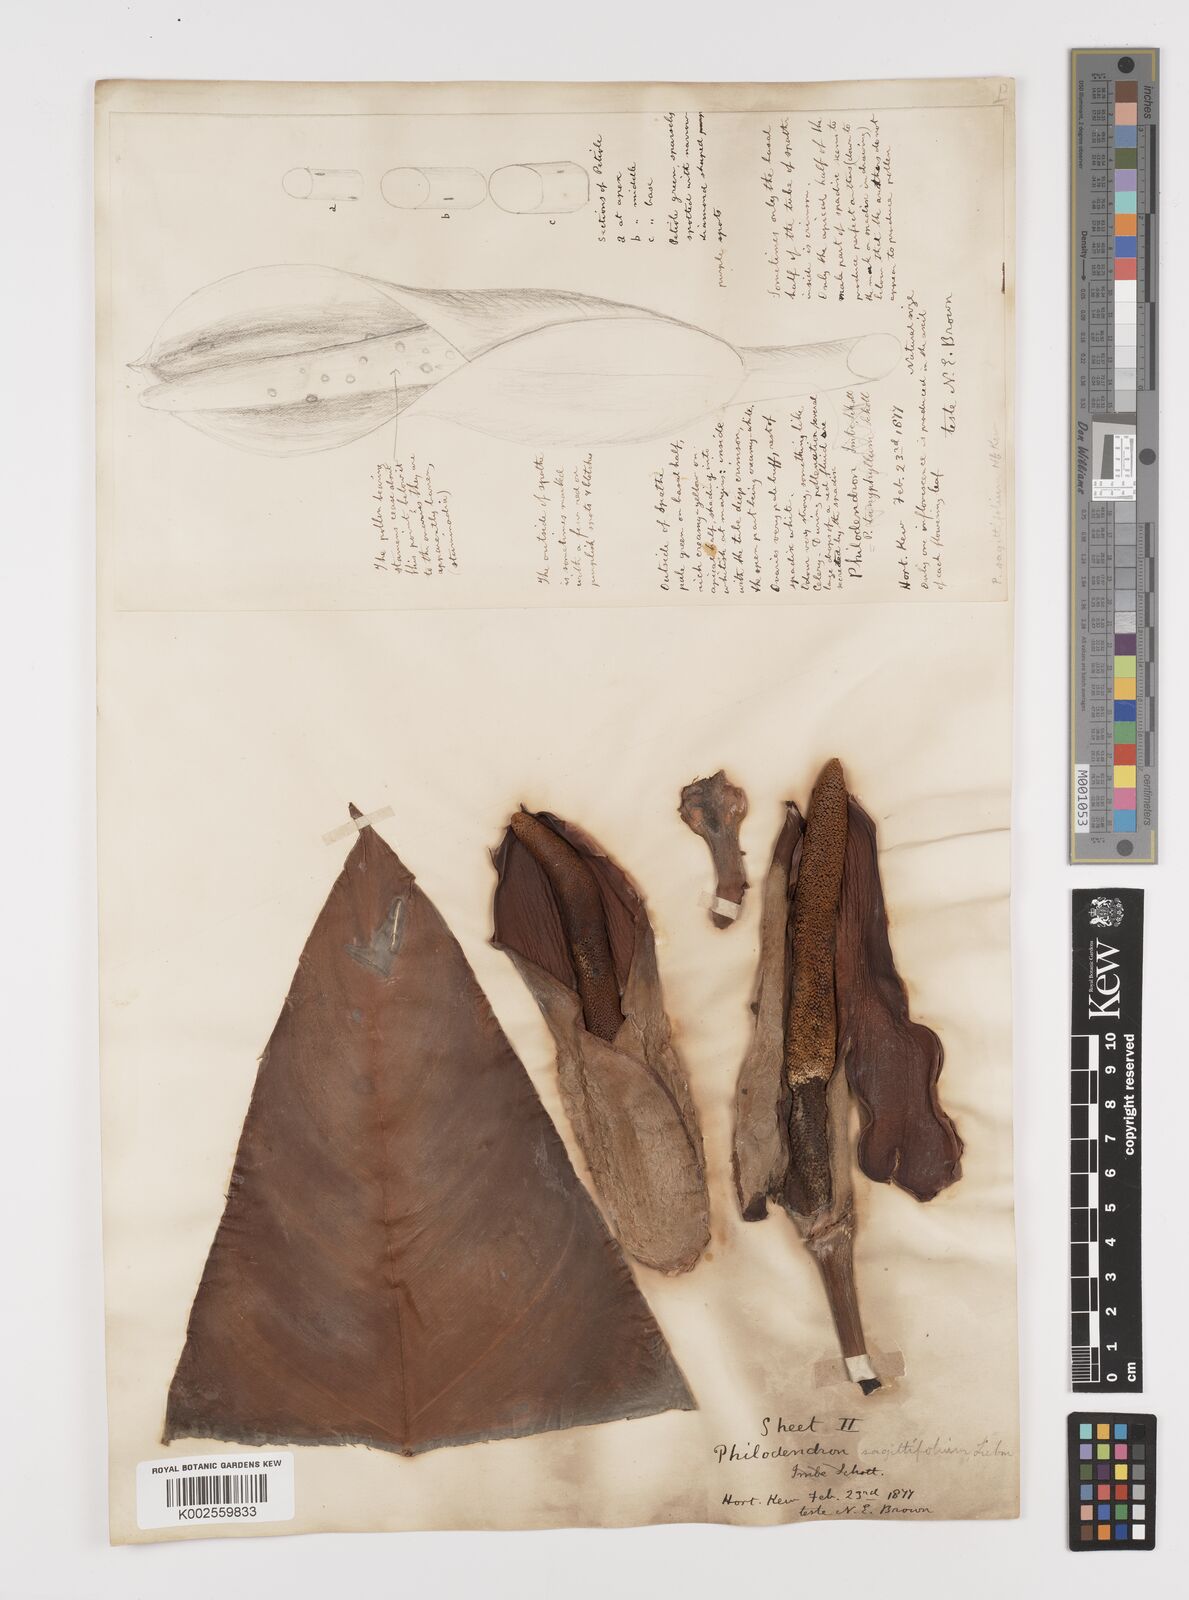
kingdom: Plantae
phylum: Tracheophyta
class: Liliopsida
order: Alismatales
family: Araceae
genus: Philodendron
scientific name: Philodendron sagittifolium
